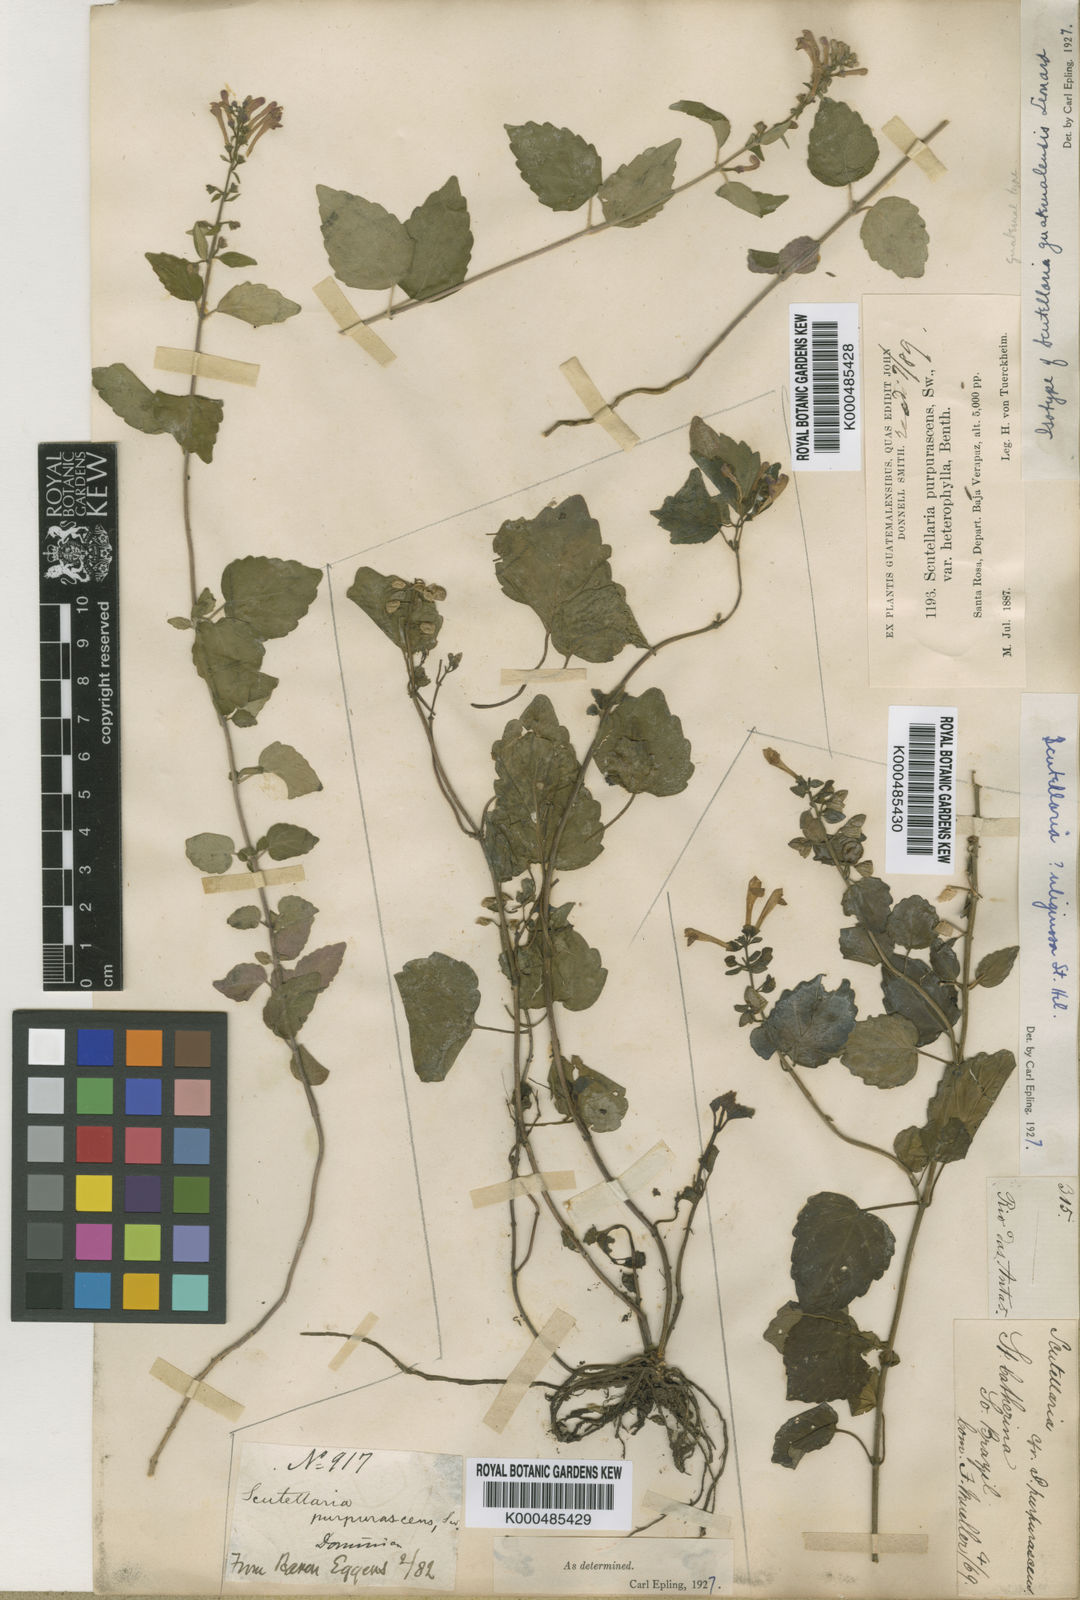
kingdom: Plantae
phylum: Tracheophyta
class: Magnoliopsida
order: Lamiales
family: Lamiaceae
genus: Scutellaria
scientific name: Scutellaria guatemalensis
